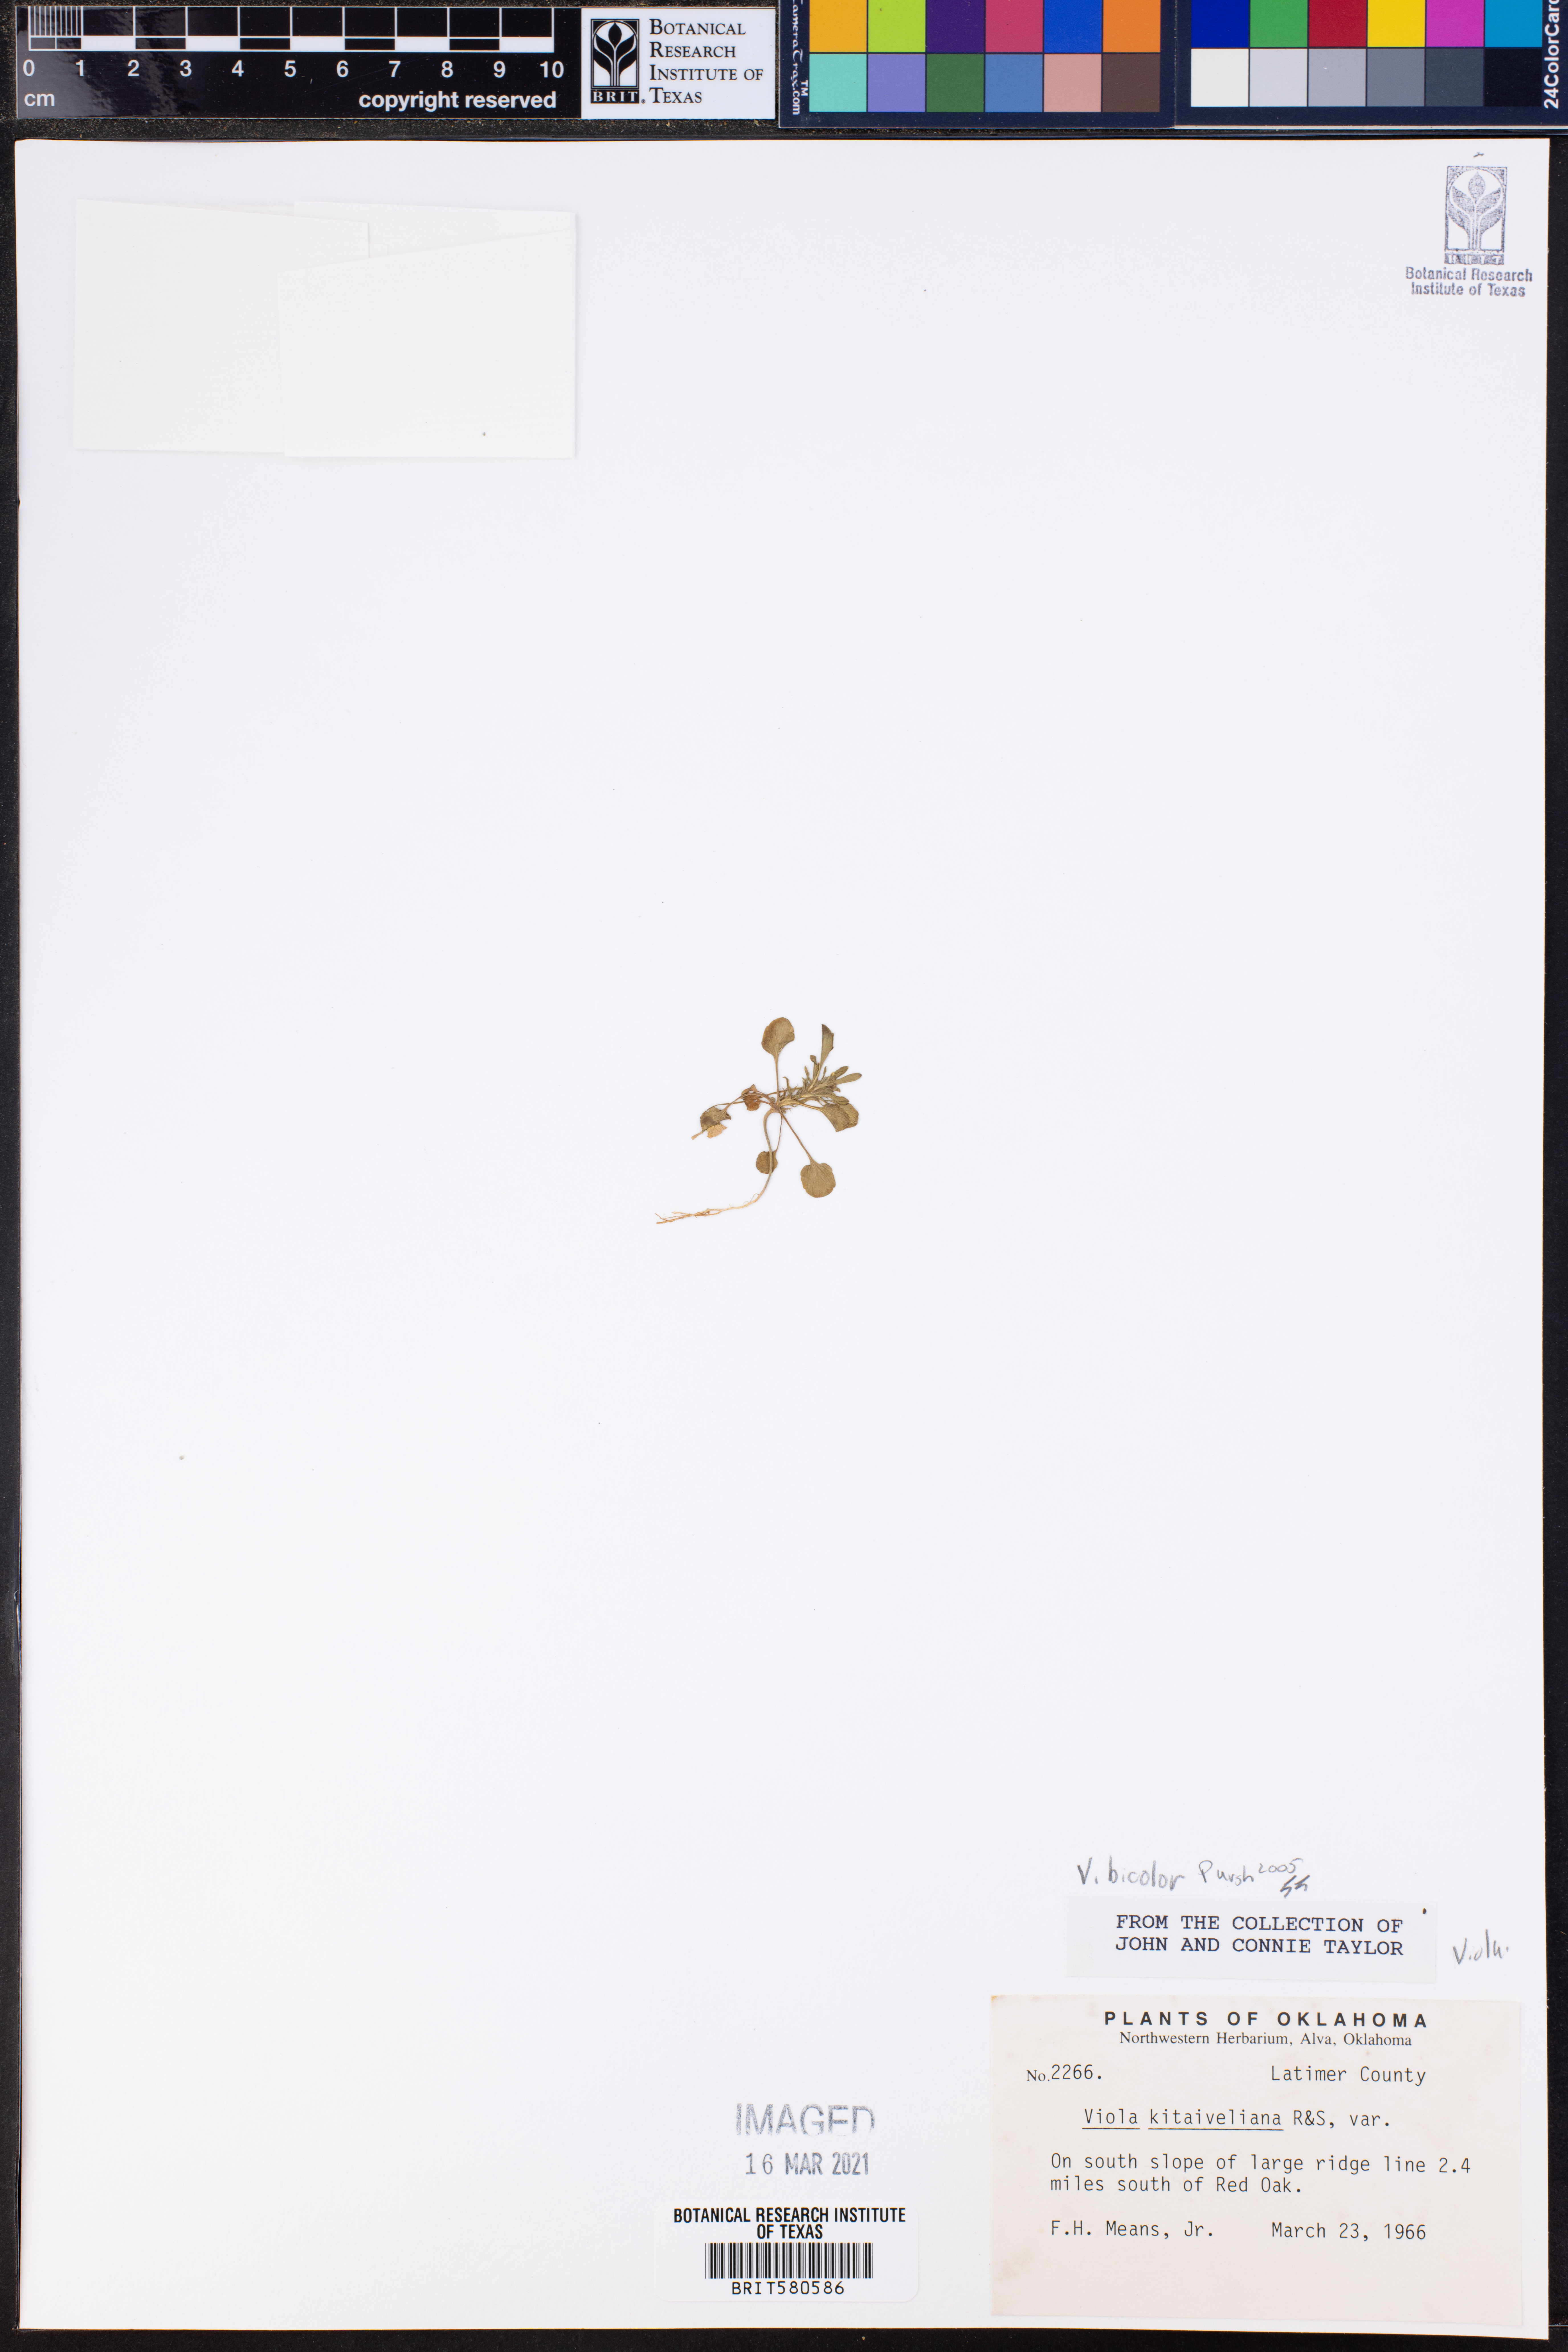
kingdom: Plantae
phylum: Tracheophyta
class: Magnoliopsida
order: Malpighiales
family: Violaceae
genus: Viola
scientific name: Viola rafinesquei
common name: American field pansy
